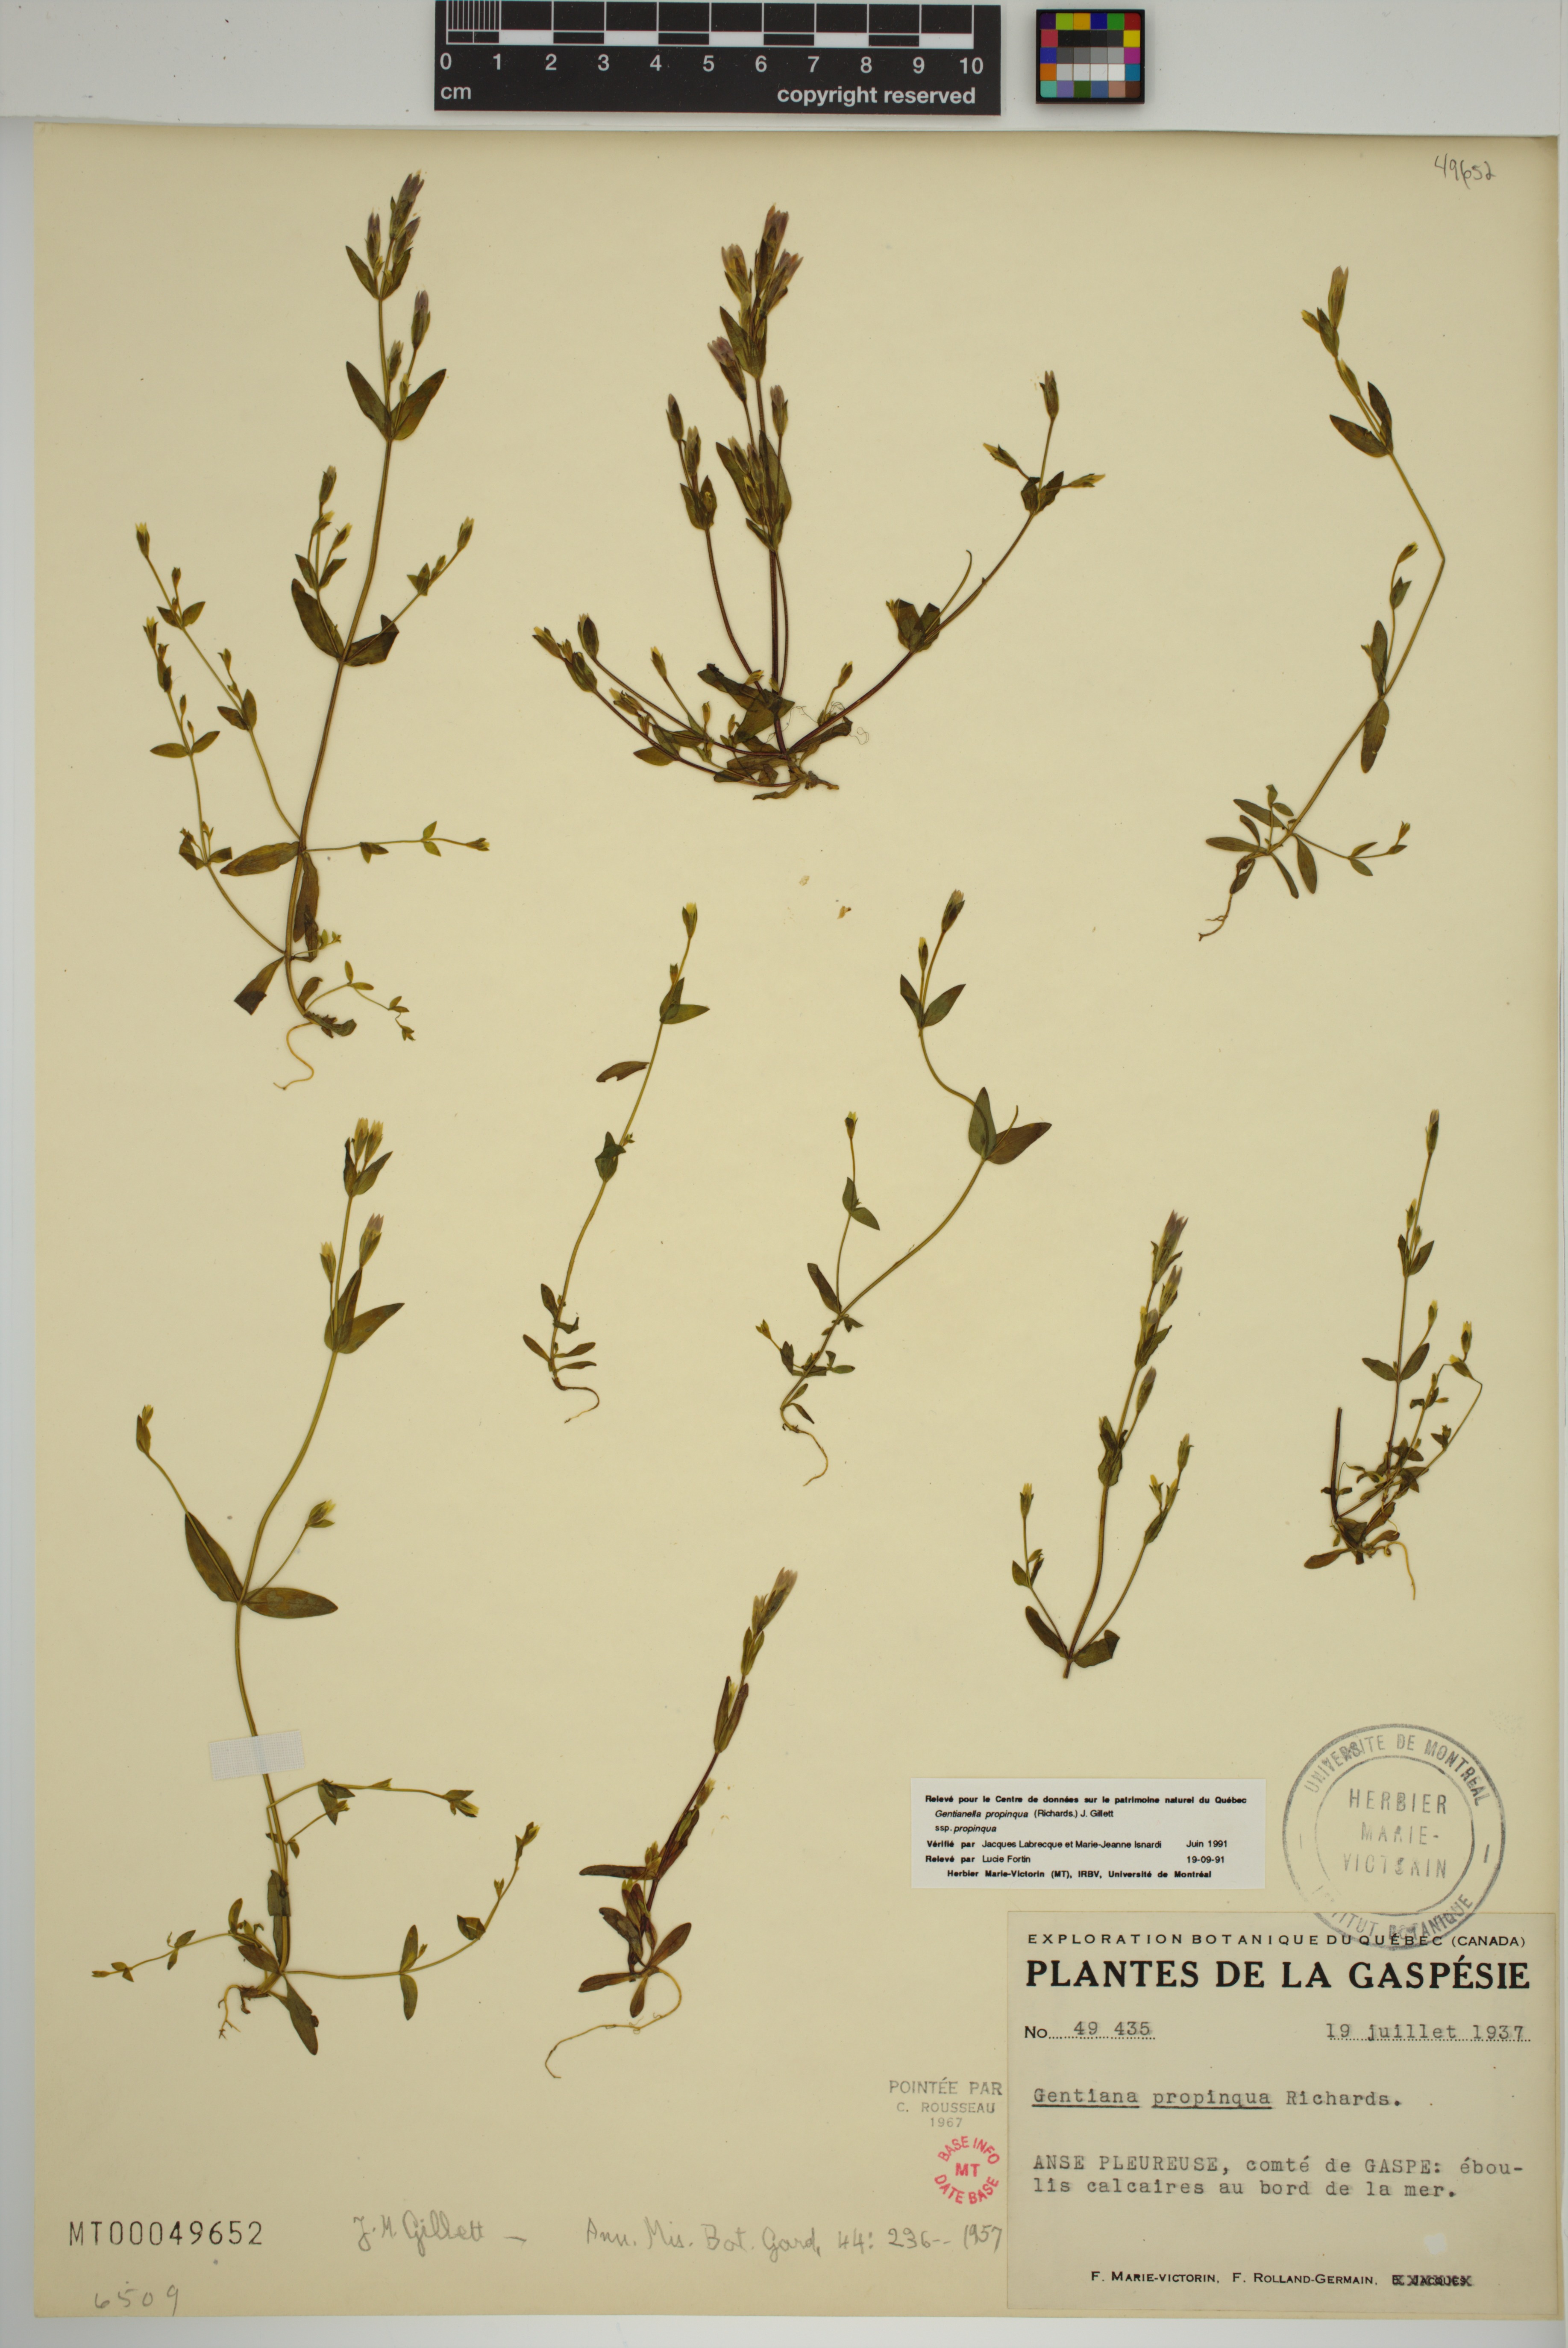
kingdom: Plantae
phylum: Tracheophyta
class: Magnoliopsida
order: Gentianales
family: Gentianaceae
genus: Gentianella
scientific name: Gentianella propinqua
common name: Four-parted dwarf-gentian
